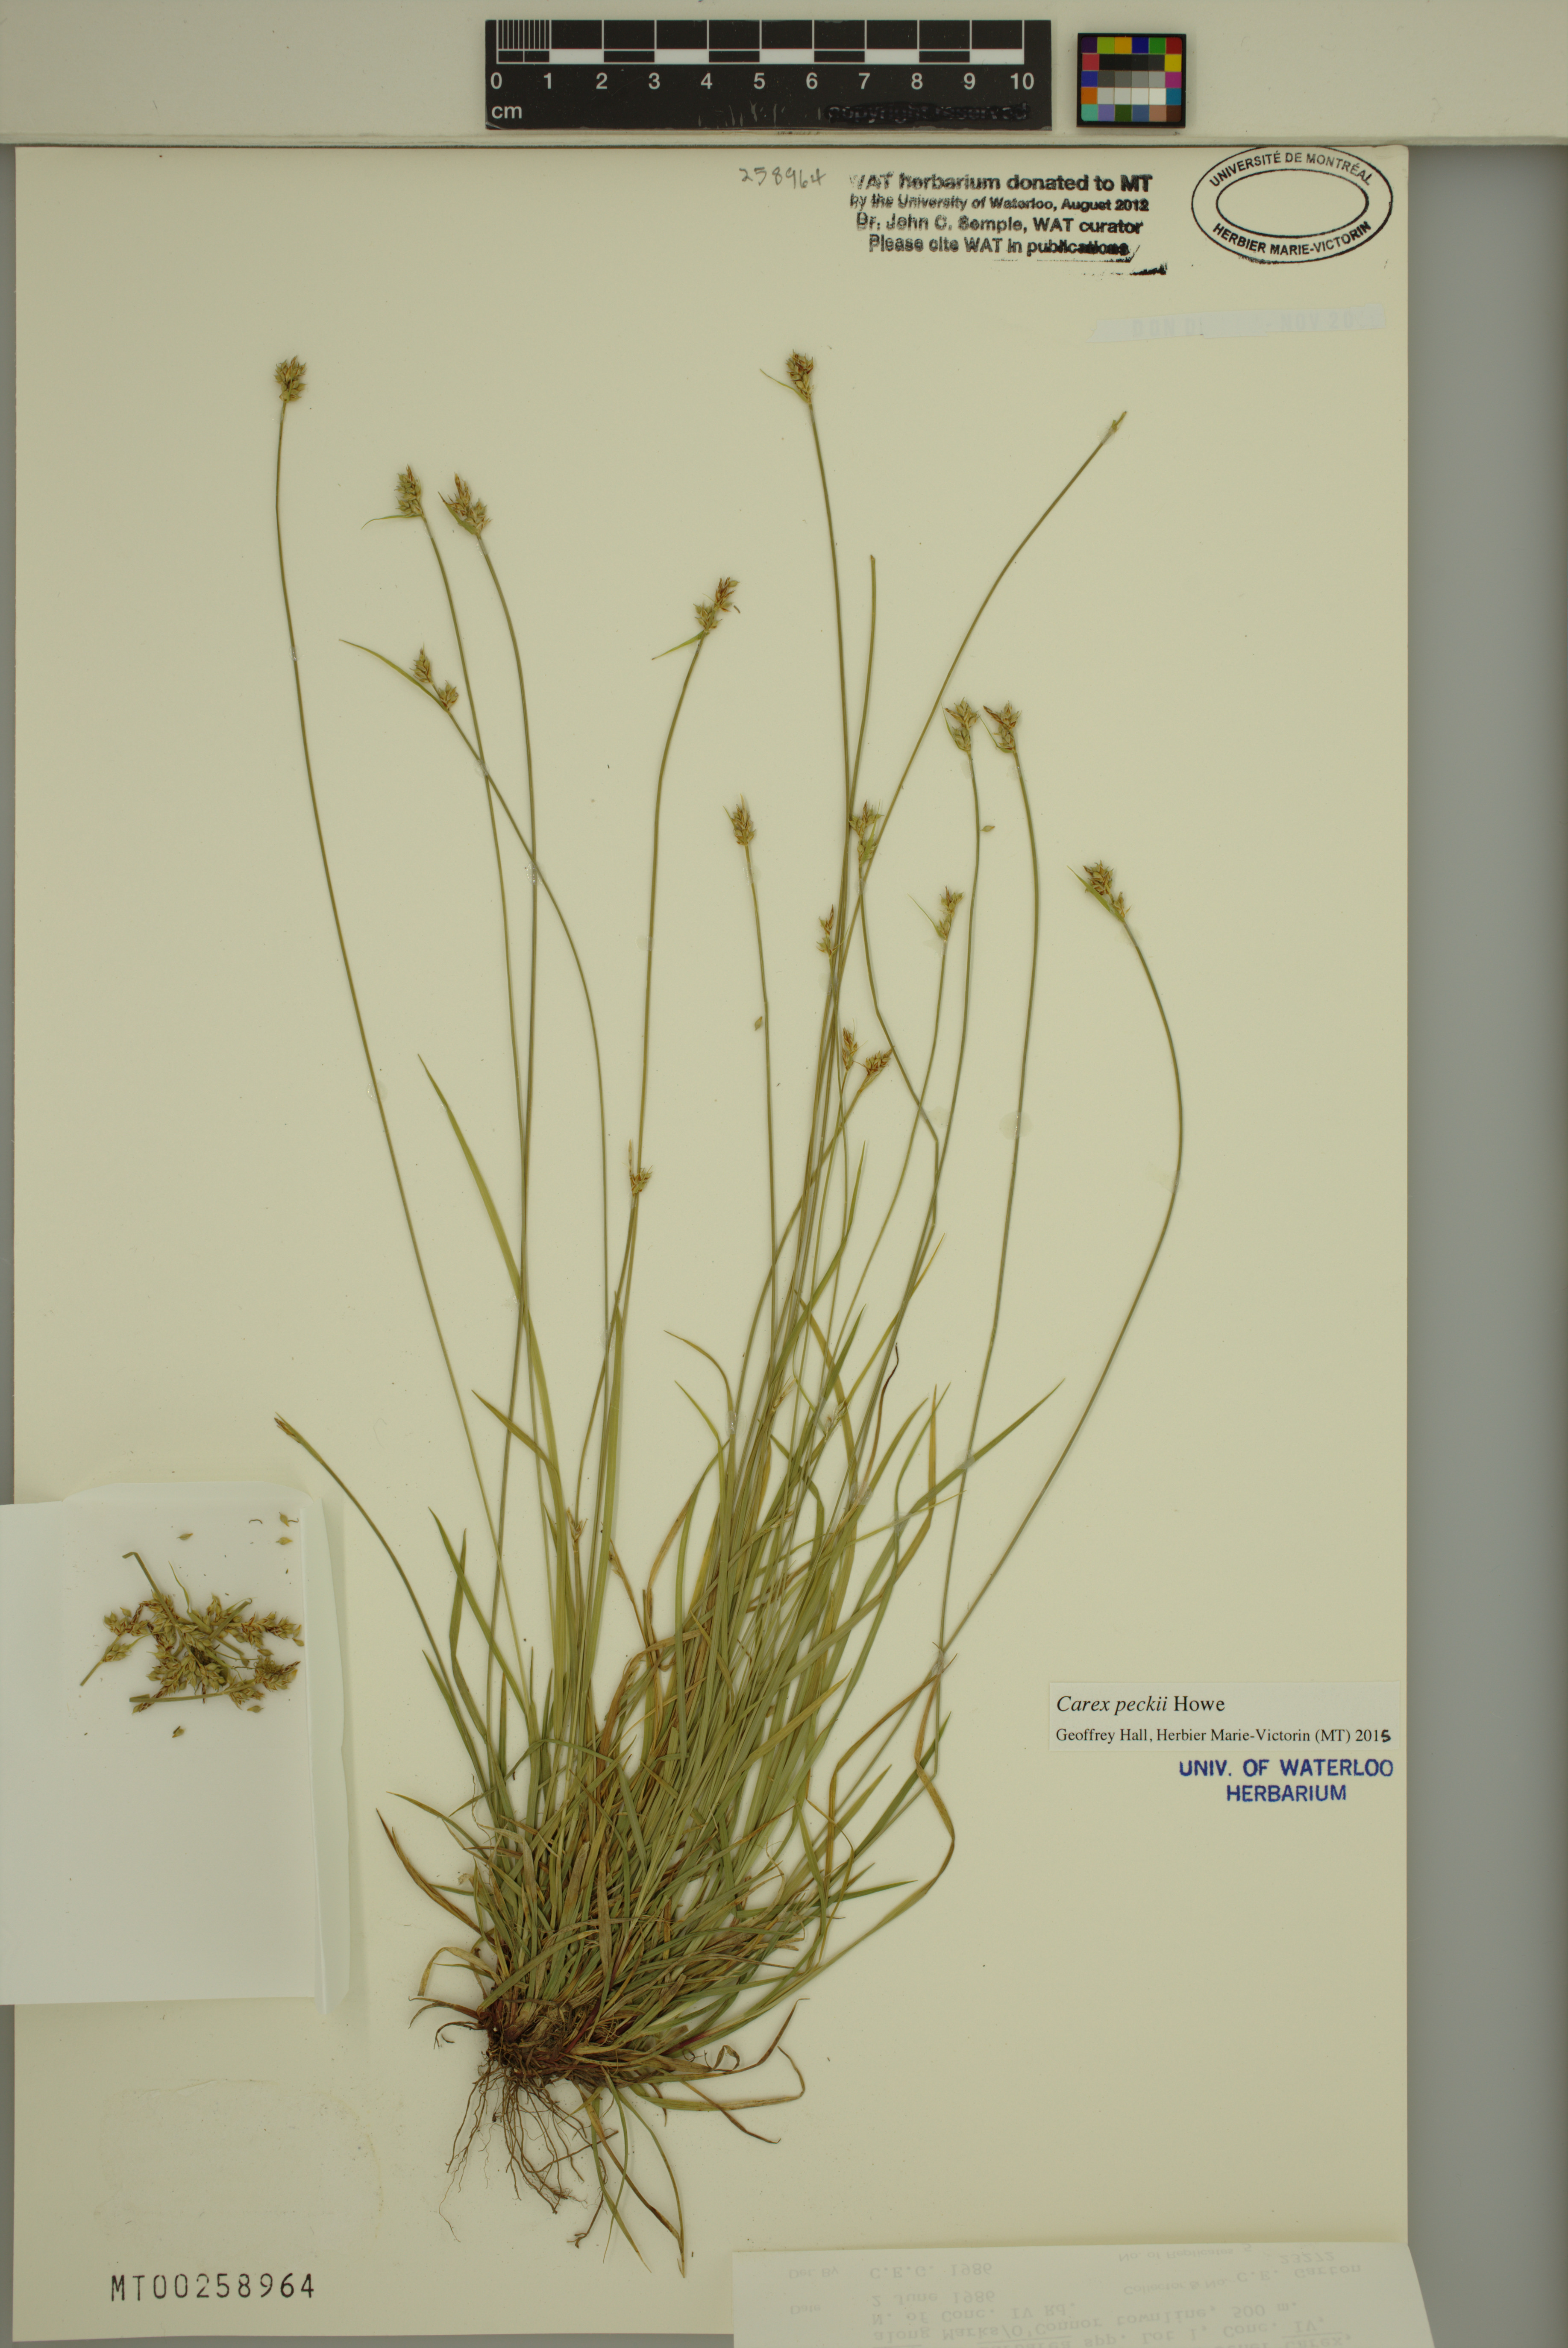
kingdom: Plantae
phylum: Tracheophyta
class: Liliopsida
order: Poales
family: Cyperaceae
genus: Carex
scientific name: Carex peckii
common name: Peck's oak sedge
